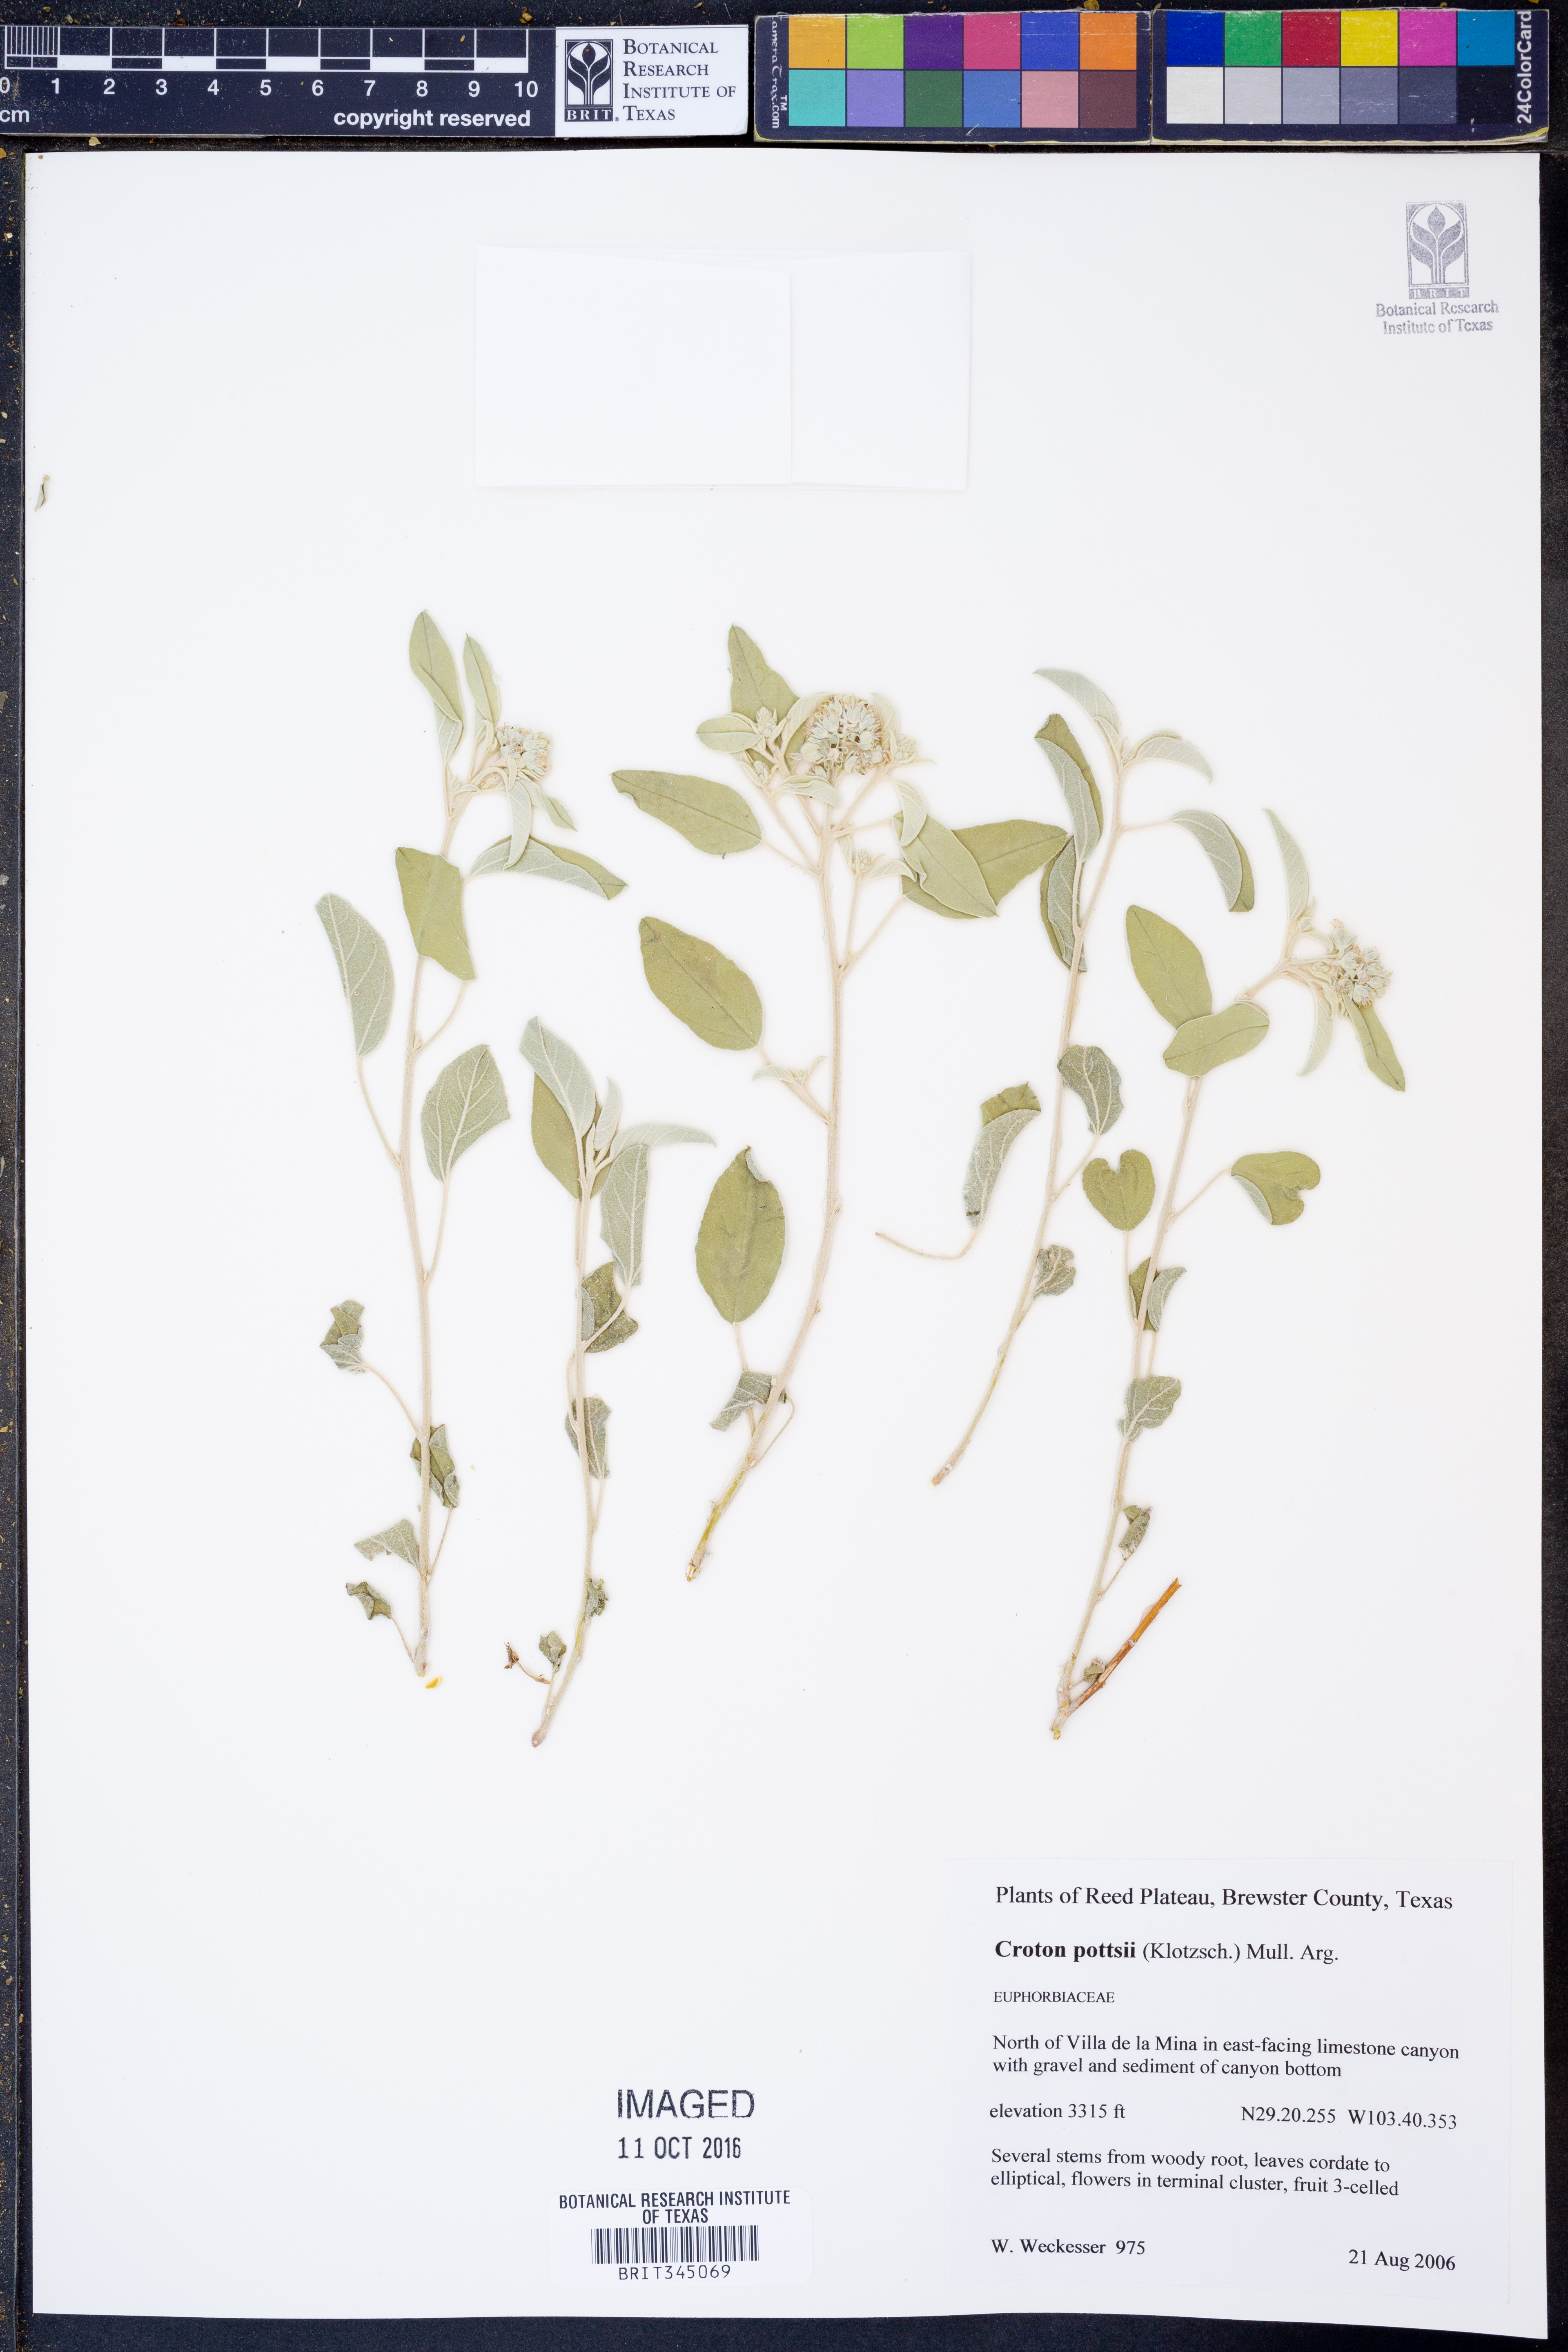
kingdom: Plantae
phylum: Tracheophyta
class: Magnoliopsida
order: Malpighiales
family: Euphorbiaceae
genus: Croton
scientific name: Croton pottsii
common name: Leatherweed
